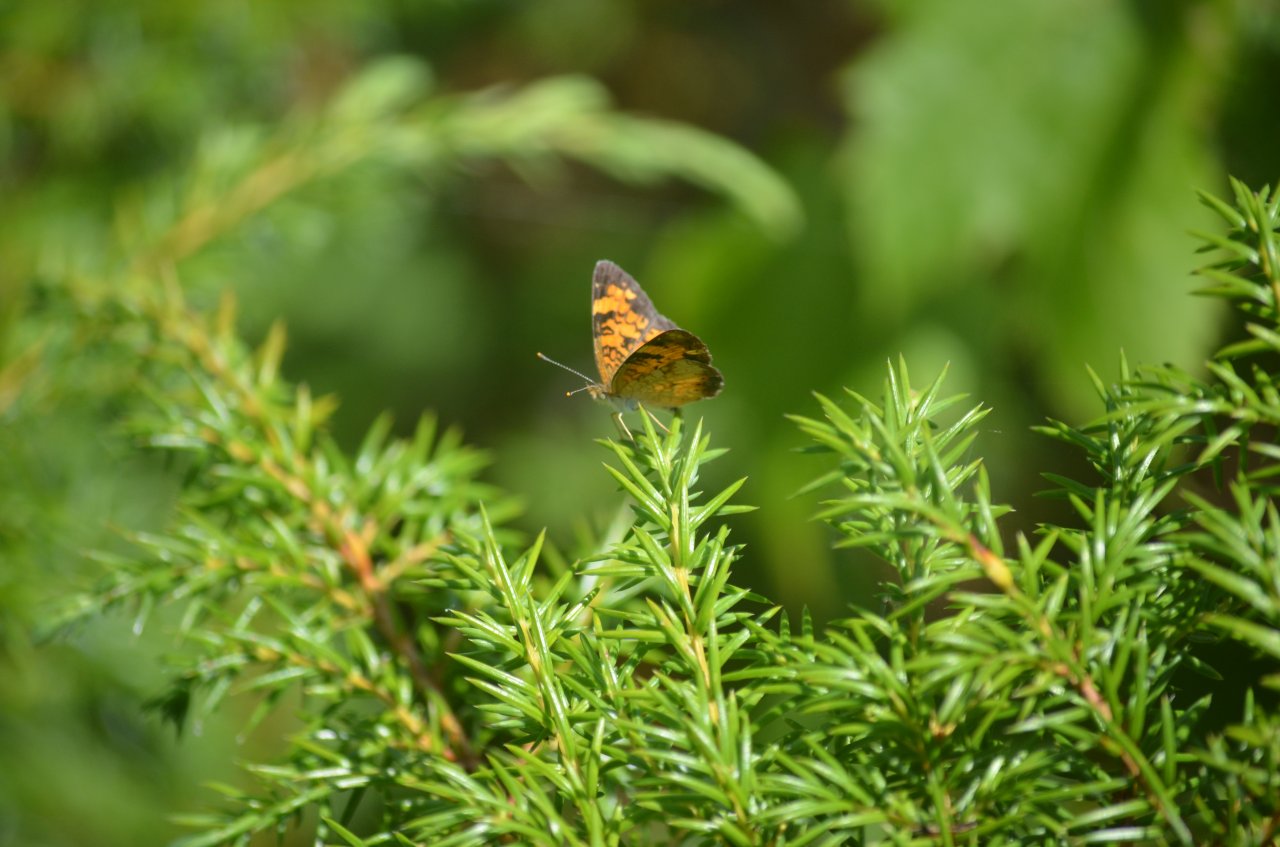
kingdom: Animalia
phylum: Arthropoda
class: Insecta
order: Lepidoptera
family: Nymphalidae
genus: Phyciodes
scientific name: Phyciodes tharos
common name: Northern Crescent
